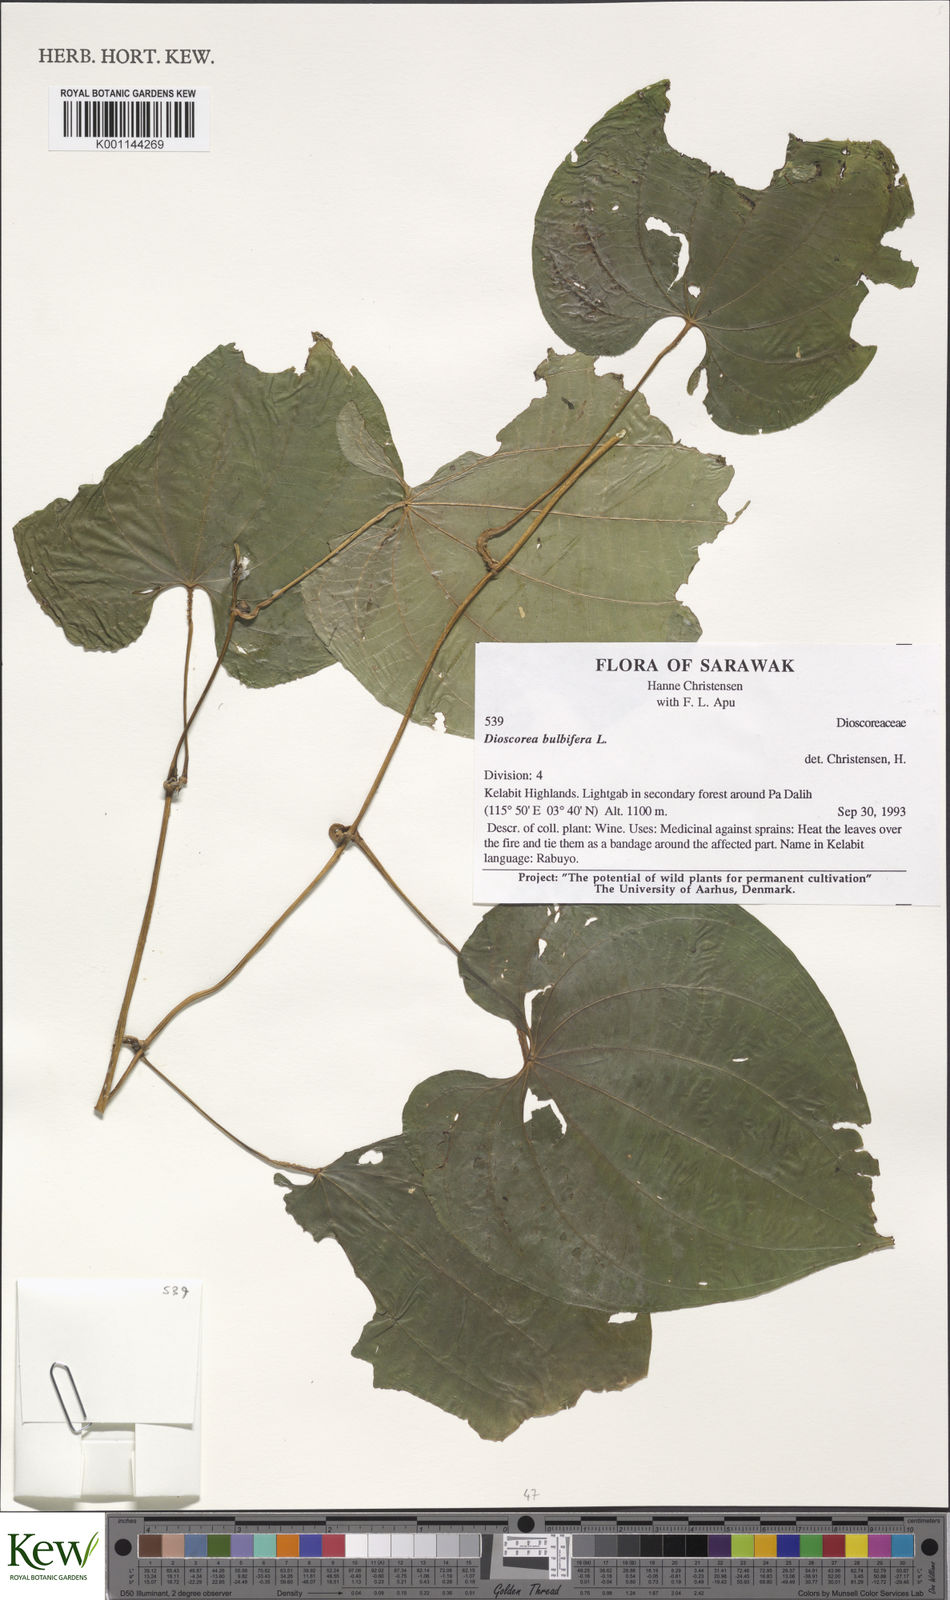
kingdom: Plantae
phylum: Tracheophyta
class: Liliopsida
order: Dioscoreales
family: Dioscoreaceae
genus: Dioscorea
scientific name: Dioscorea bulbifera
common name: Air yam
